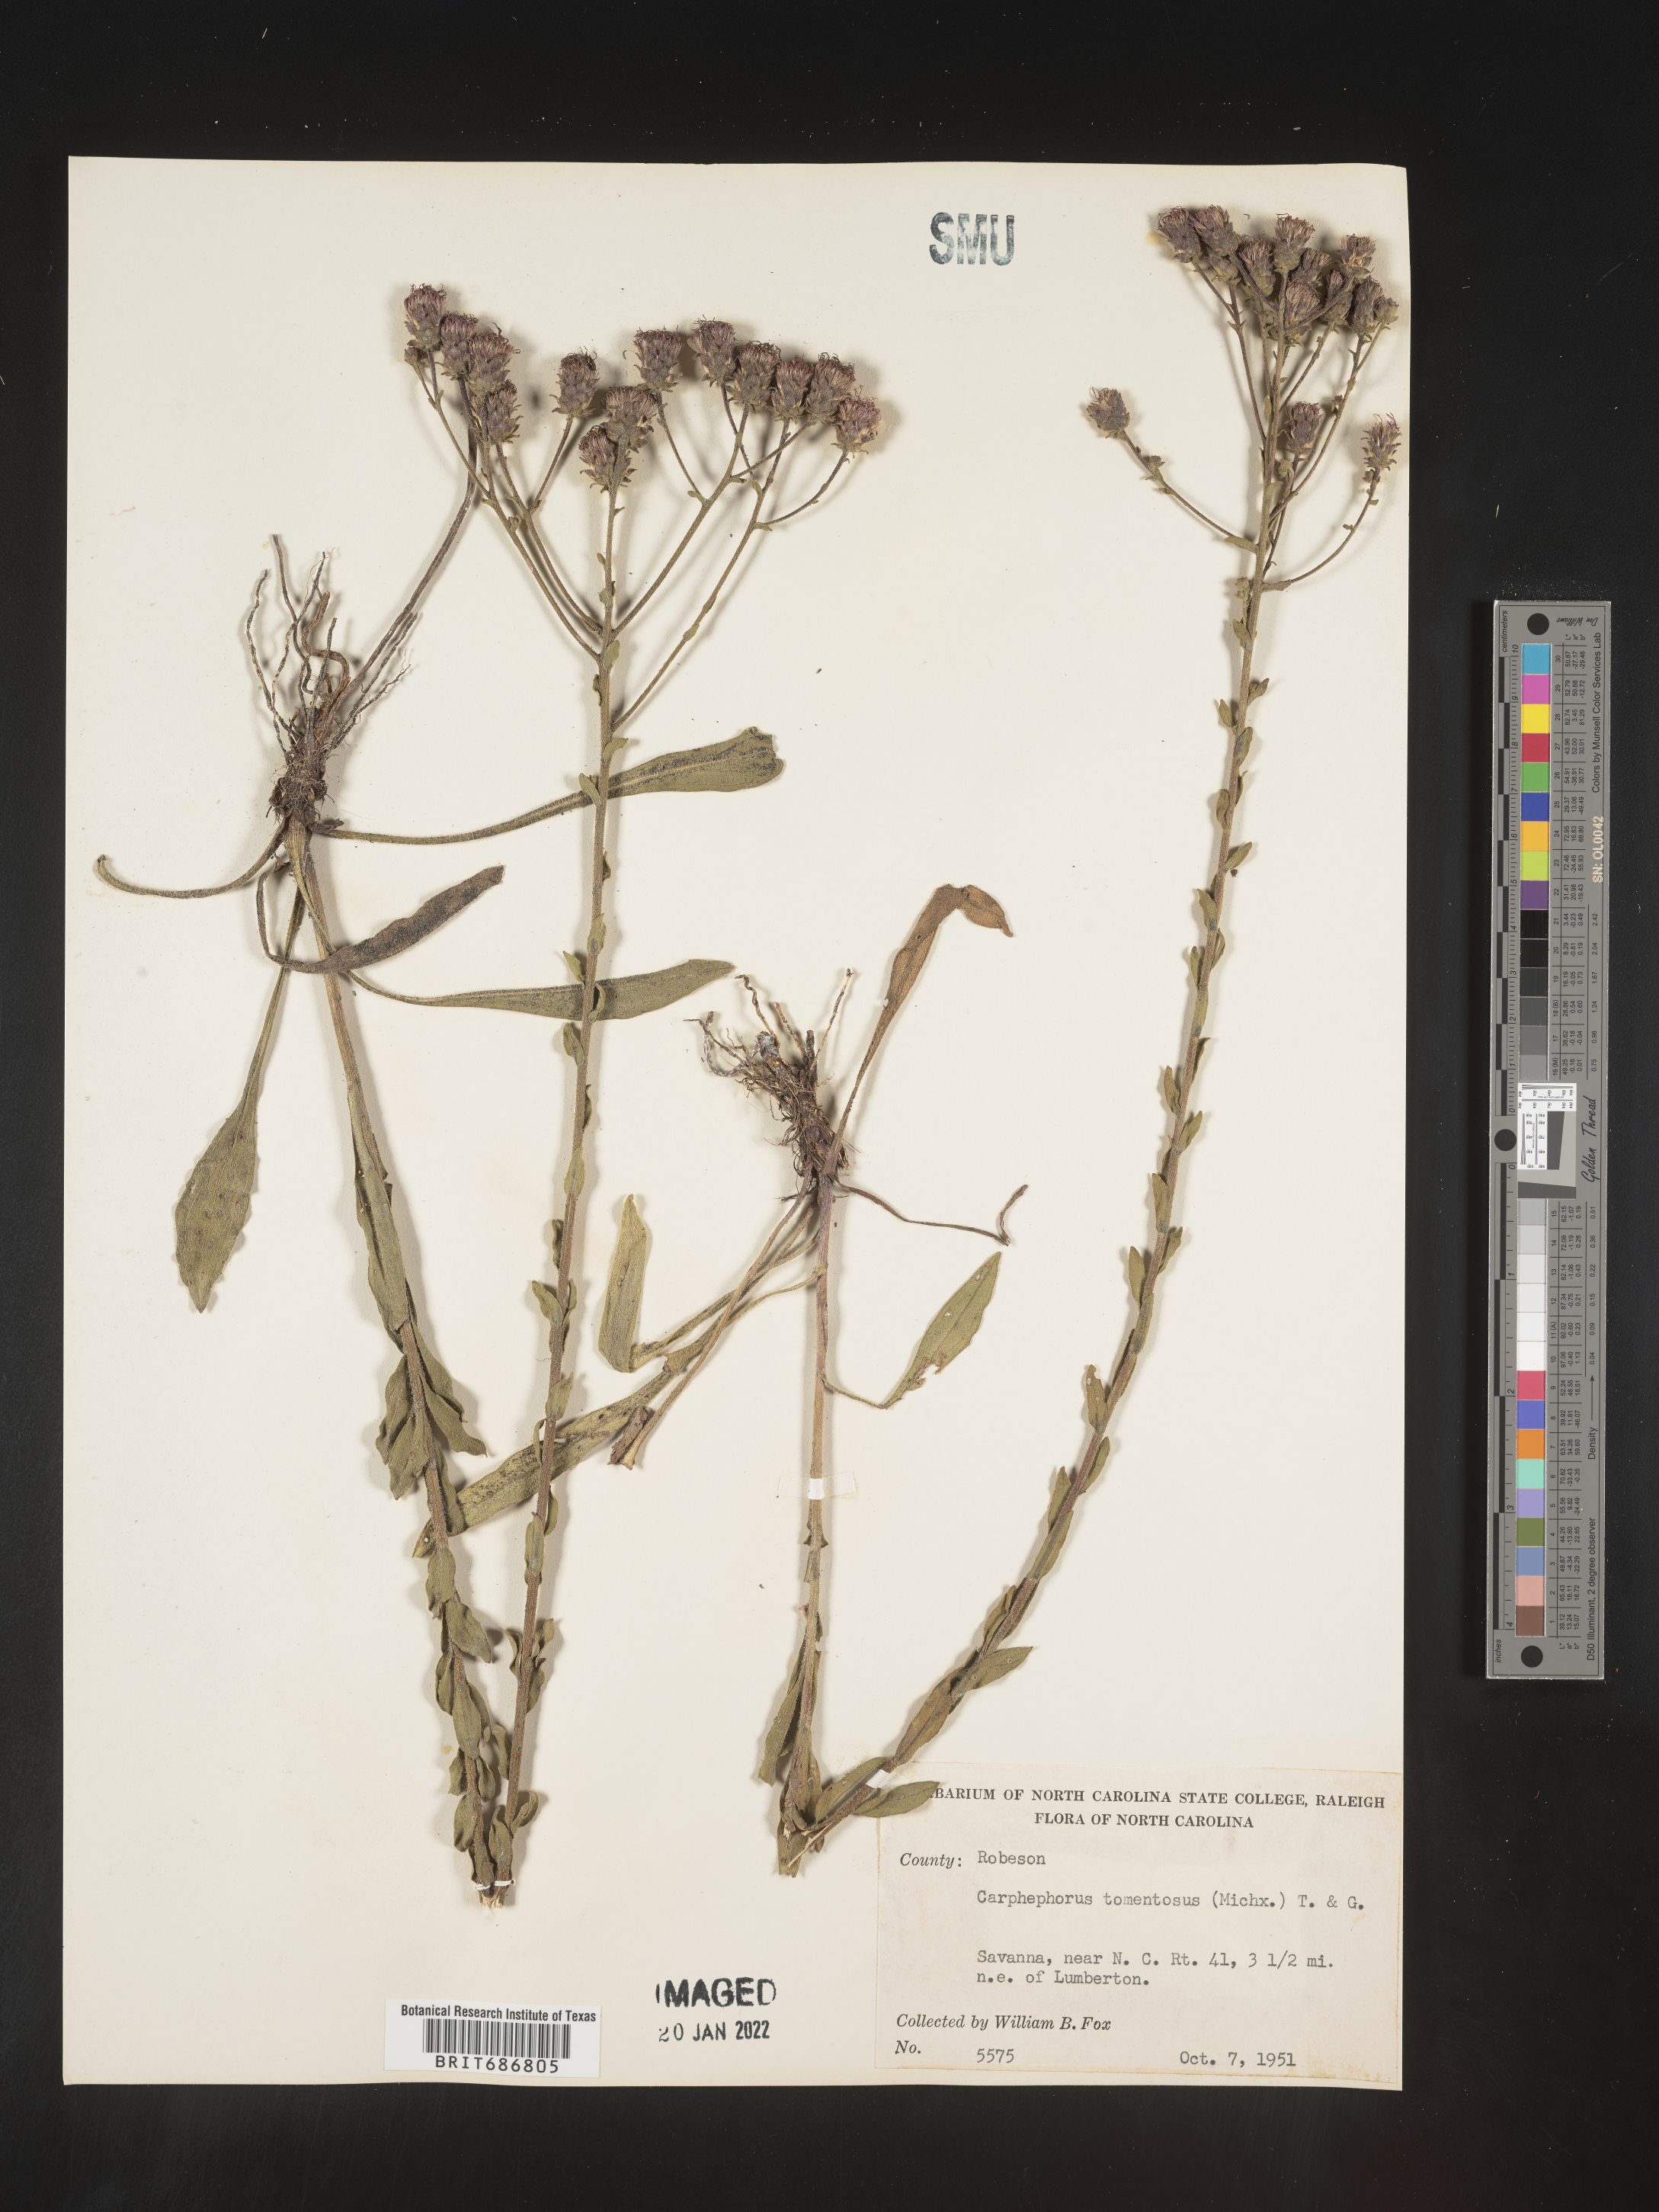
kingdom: Plantae
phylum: Tracheophyta
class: Magnoliopsida
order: Asterales
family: Asteraceae
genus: Carphephorus
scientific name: Carphephorus tomentosus
